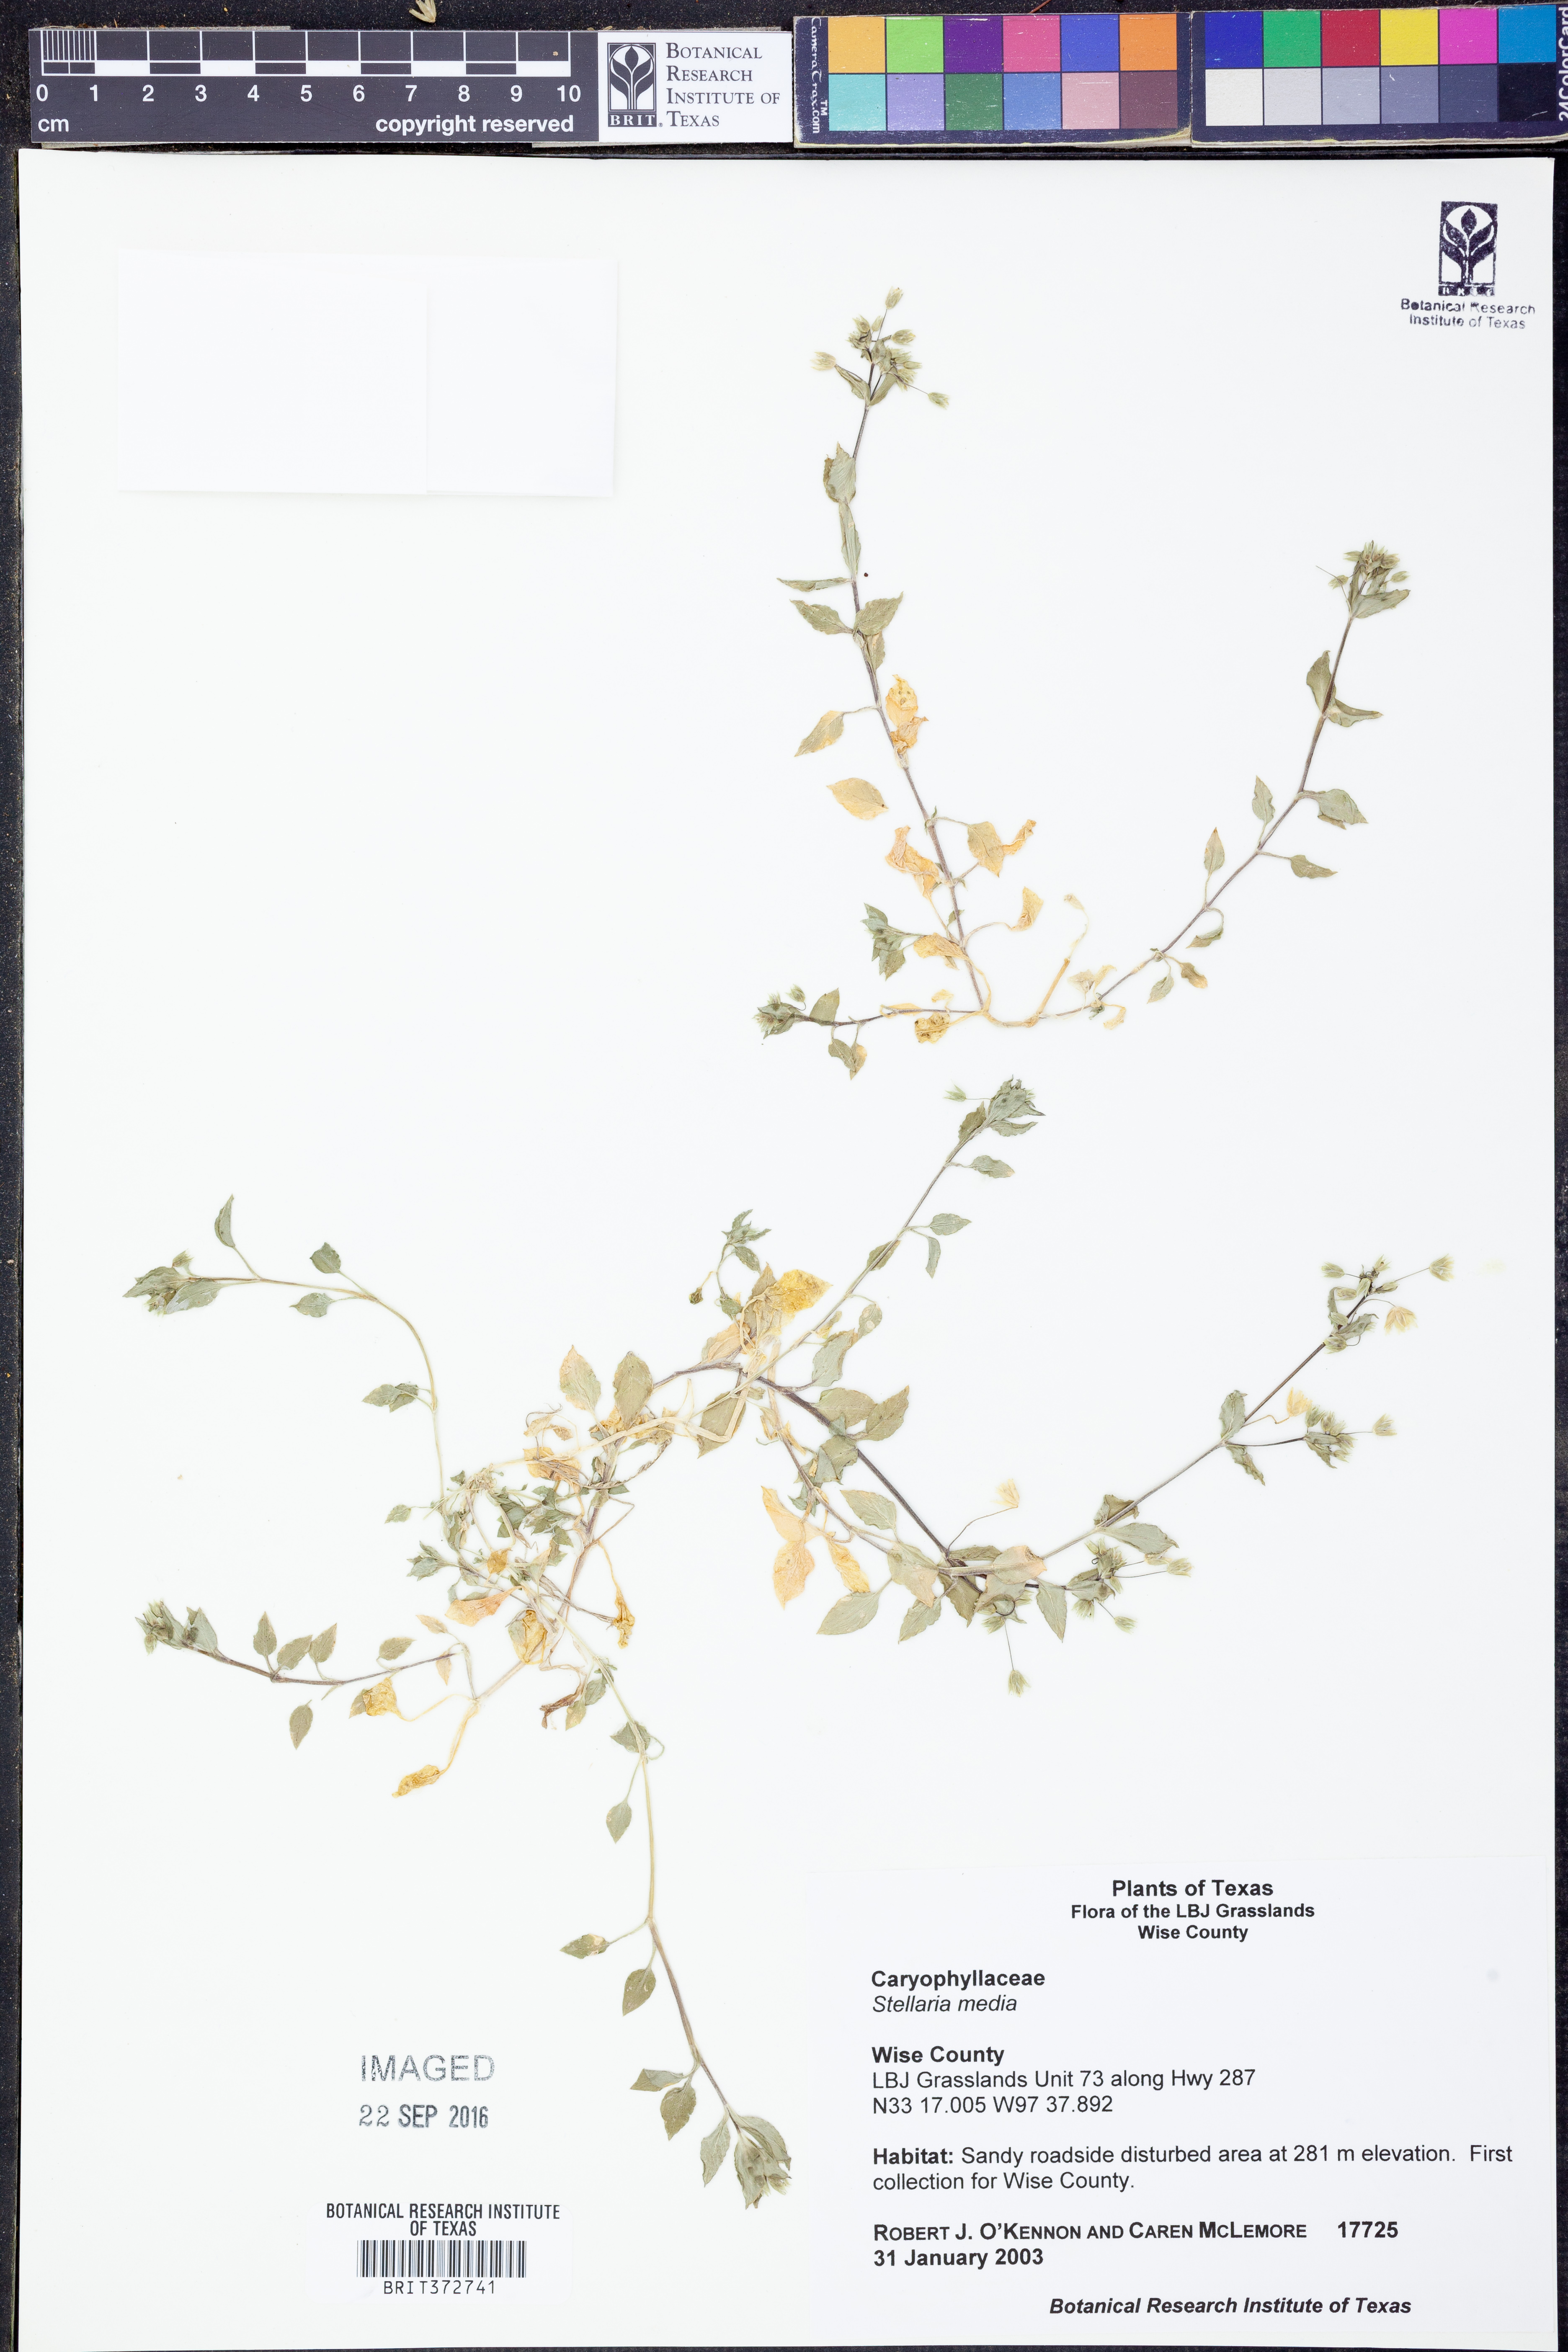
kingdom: Plantae
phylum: Tracheophyta
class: Magnoliopsida
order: Caryophyllales
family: Caryophyllaceae
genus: Stellaria
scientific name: Stellaria media
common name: Common chickweed
